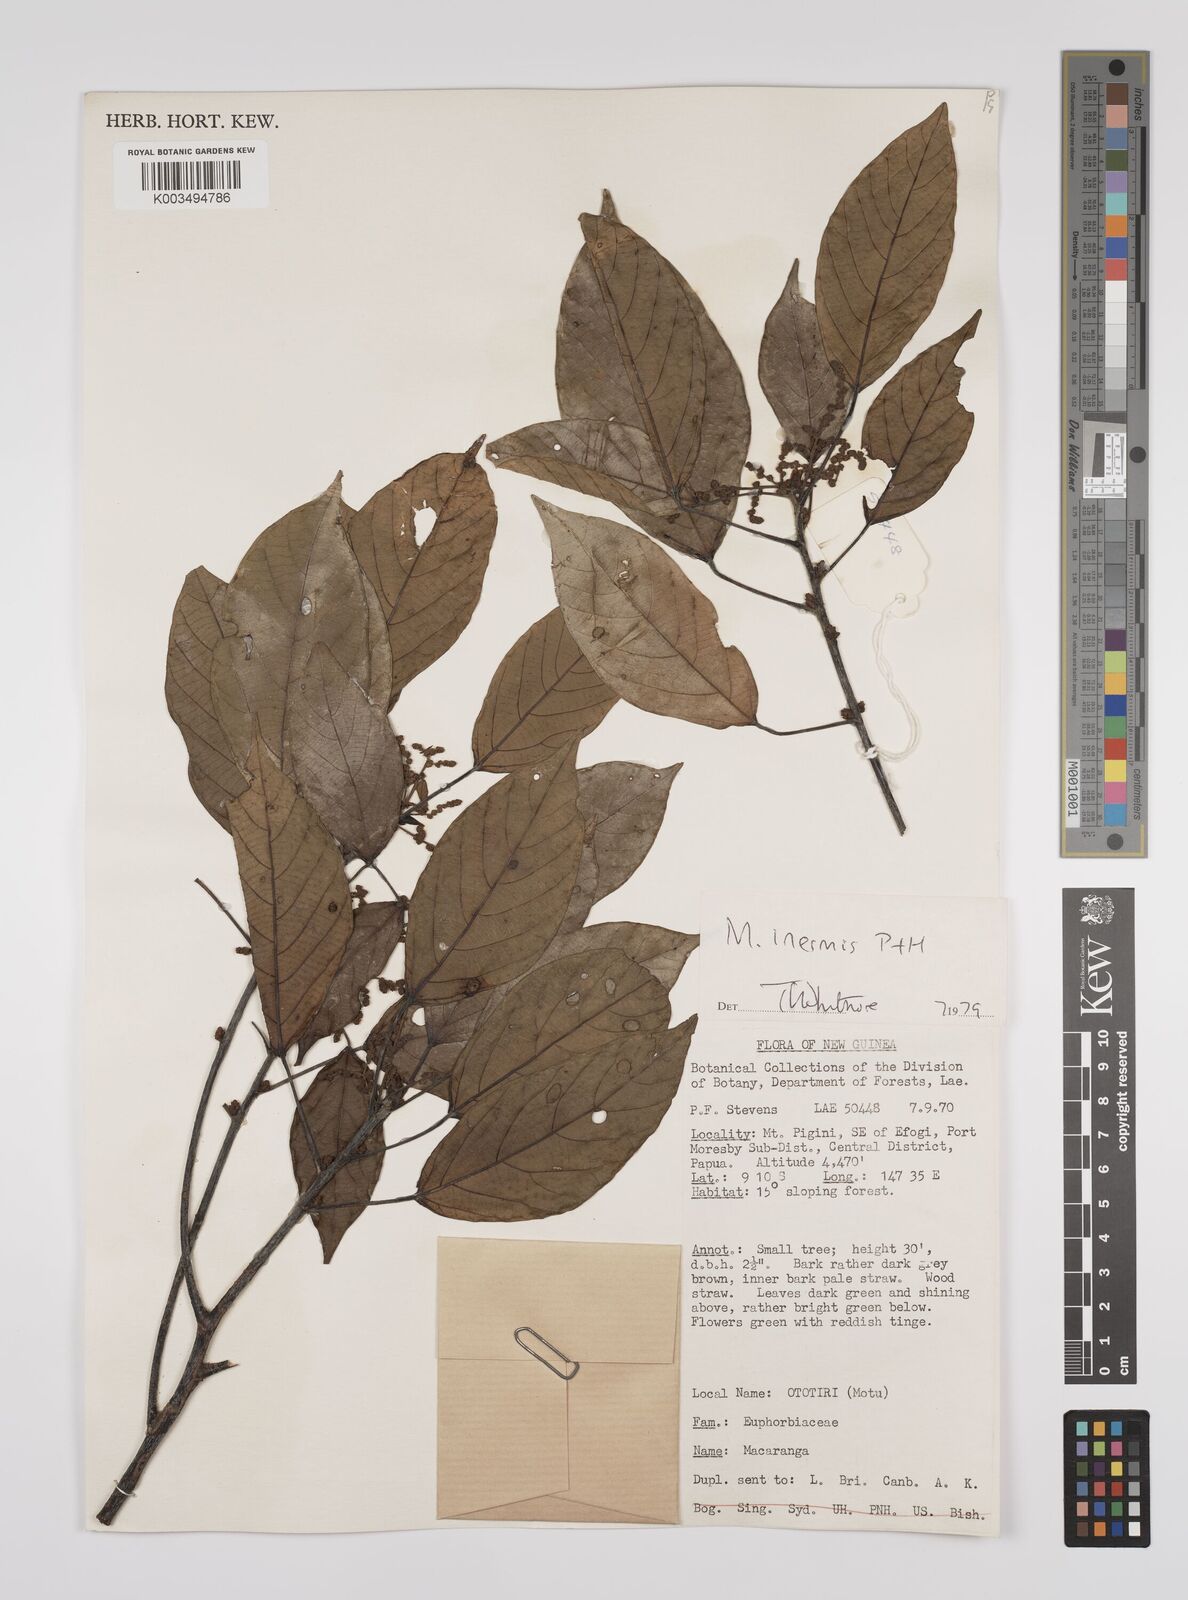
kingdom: Plantae
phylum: Tracheophyta
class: Magnoliopsida
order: Malpighiales
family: Euphorbiaceae
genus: Macaranga
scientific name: Macaranga inermis
